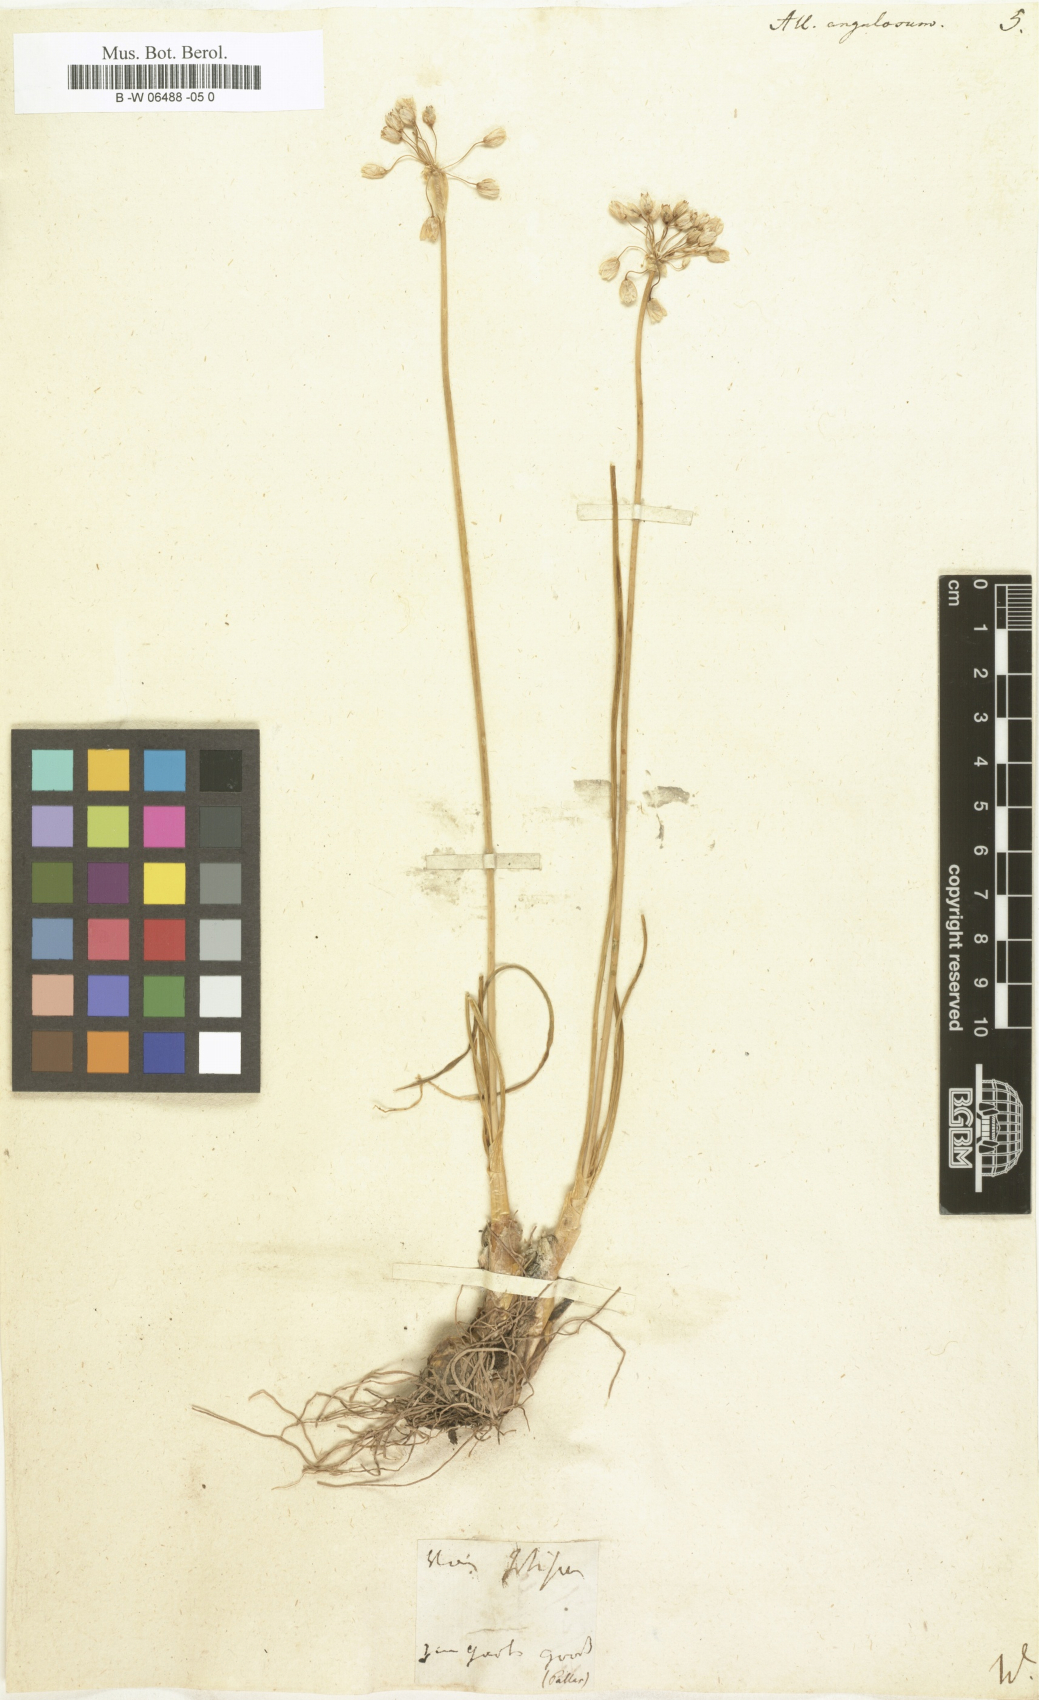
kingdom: Plantae
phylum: Tracheophyta
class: Liliopsida
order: Asparagales
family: Amaryllidaceae
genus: Allium
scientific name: Allium angulosum
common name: Mouse garlic
